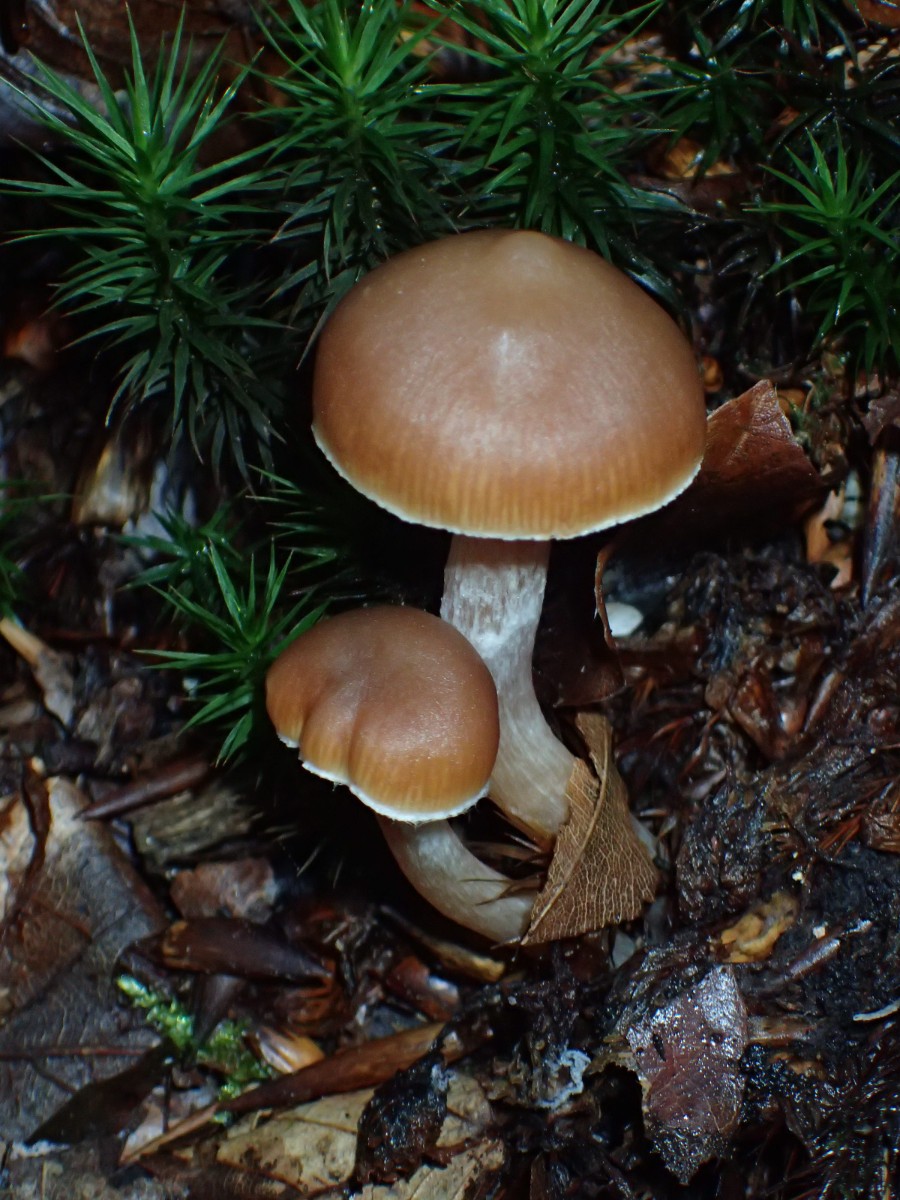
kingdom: Fungi
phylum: Basidiomycota
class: Agaricomycetes
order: Agaricales
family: Cortinariaceae
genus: Cortinarius
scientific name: Cortinarius
